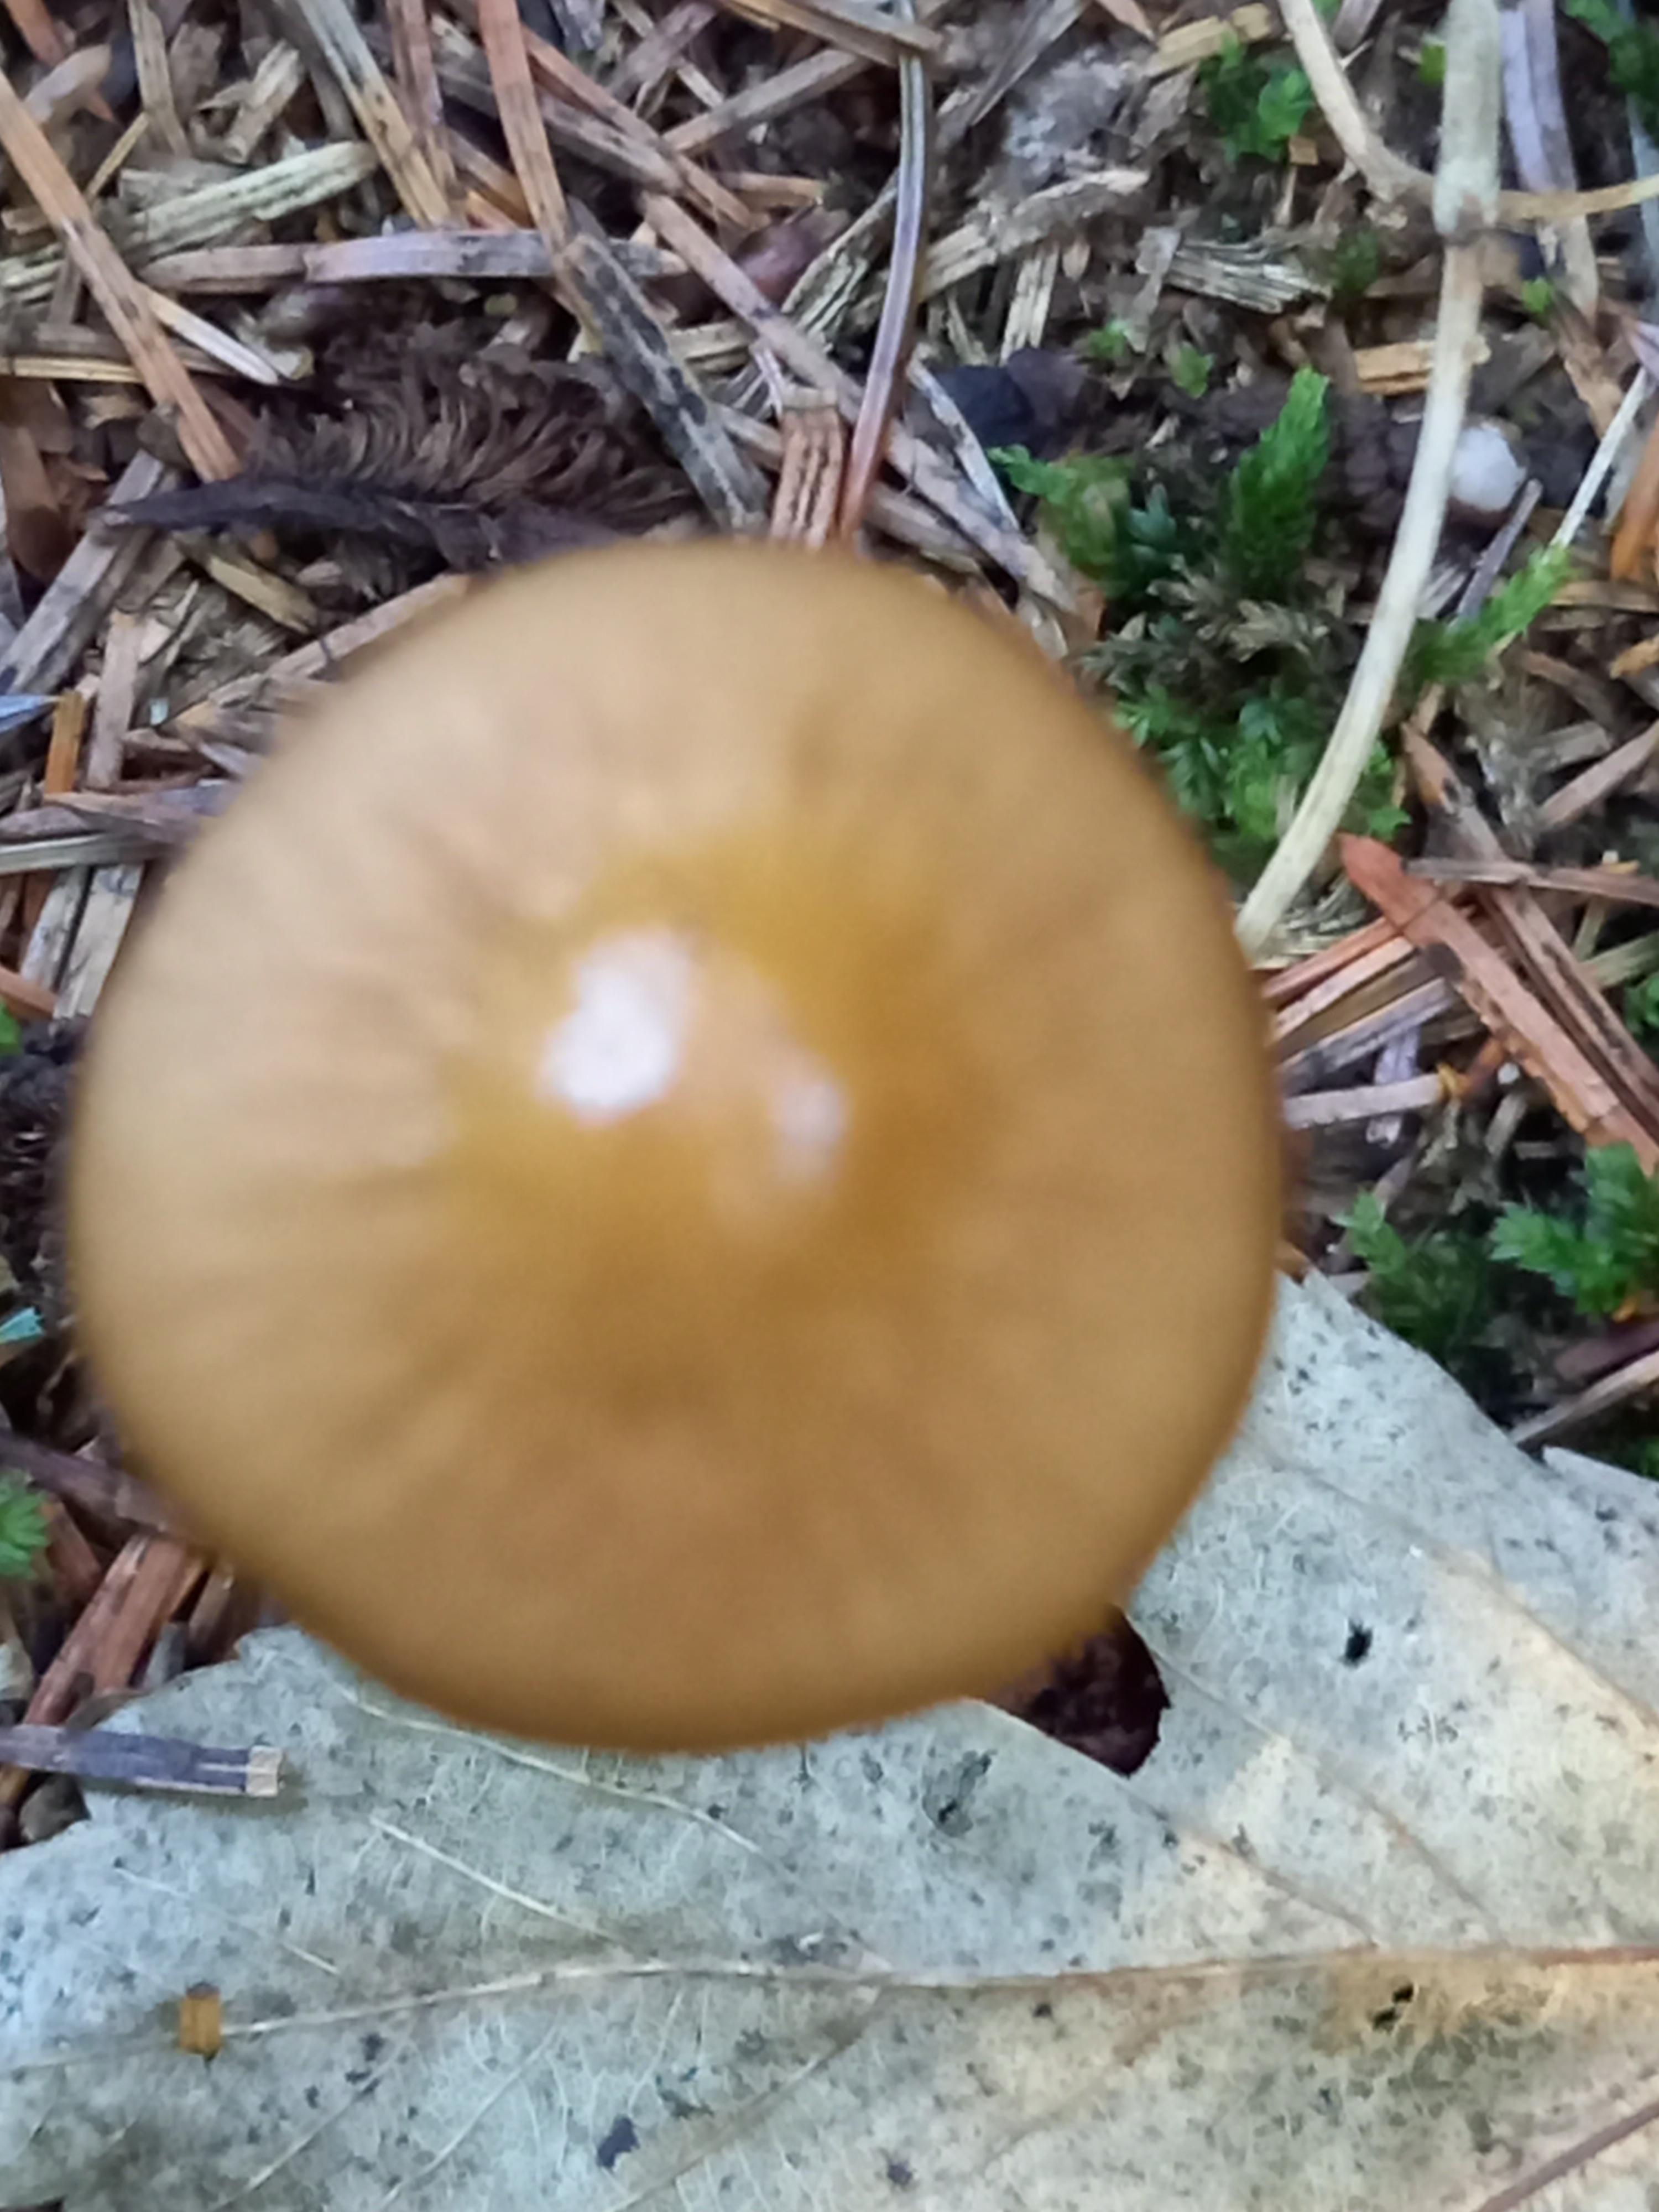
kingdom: Fungi
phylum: Basidiomycota
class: Agaricomycetes
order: Agaricales
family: Physalacriaceae
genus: Hymenopellis
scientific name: Hymenopellis radicata
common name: almindelig pælerodshat
